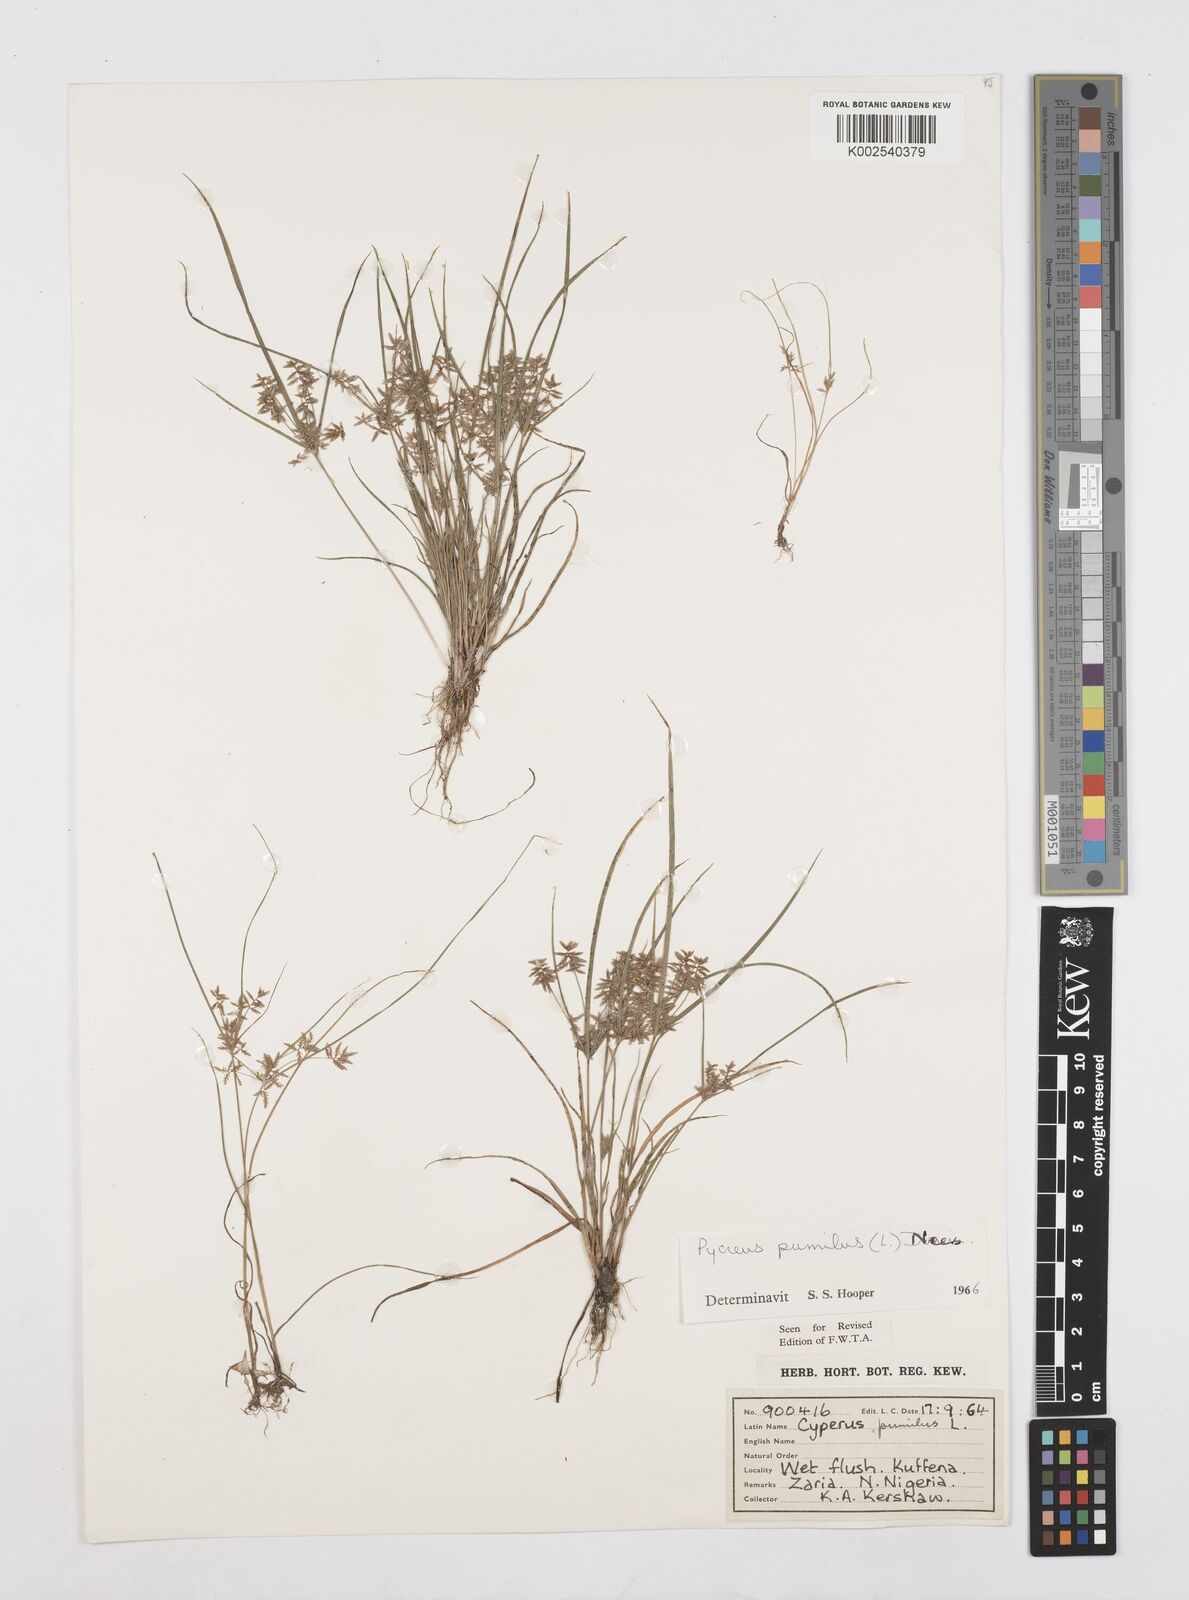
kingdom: Plantae
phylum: Tracheophyta
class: Liliopsida
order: Poales
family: Cyperaceae
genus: Cyperus
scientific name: Cyperus pumilus
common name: Low flatsedge
